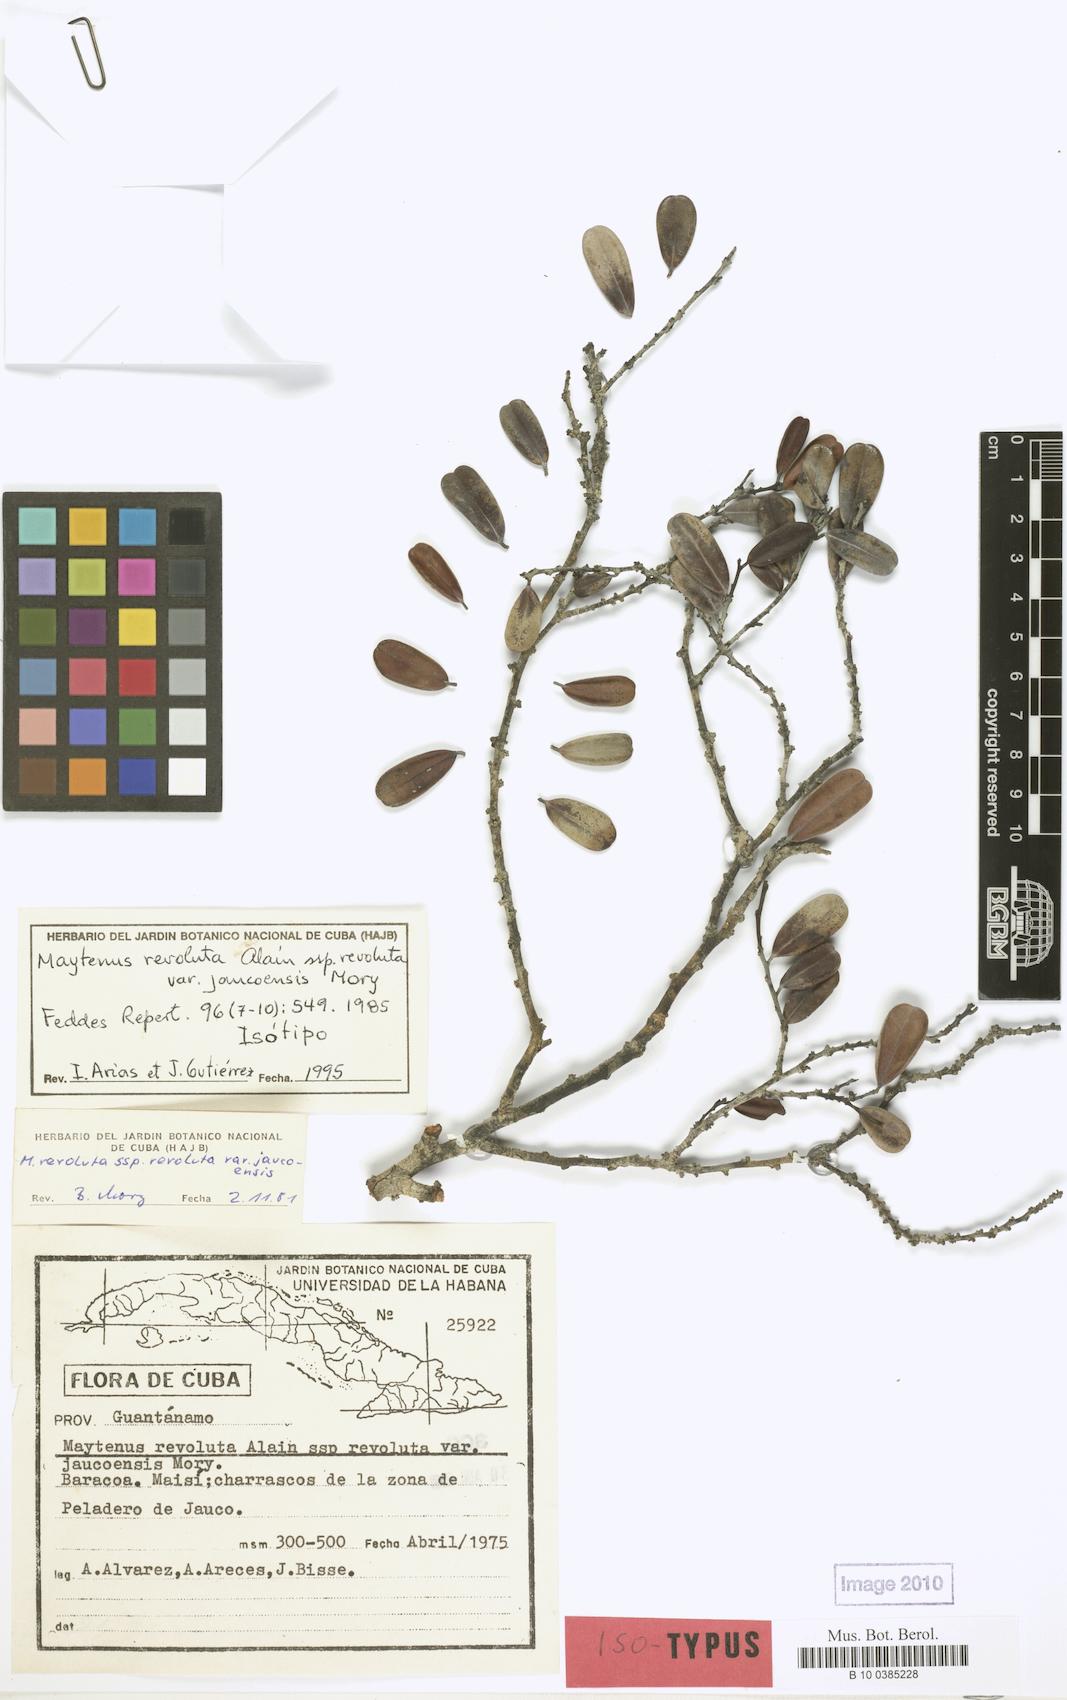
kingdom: Plantae
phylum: Tracheophyta
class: Magnoliopsida
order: Celastrales
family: Celastraceae
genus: Monteverdia
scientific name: Monteverdia revoluta
